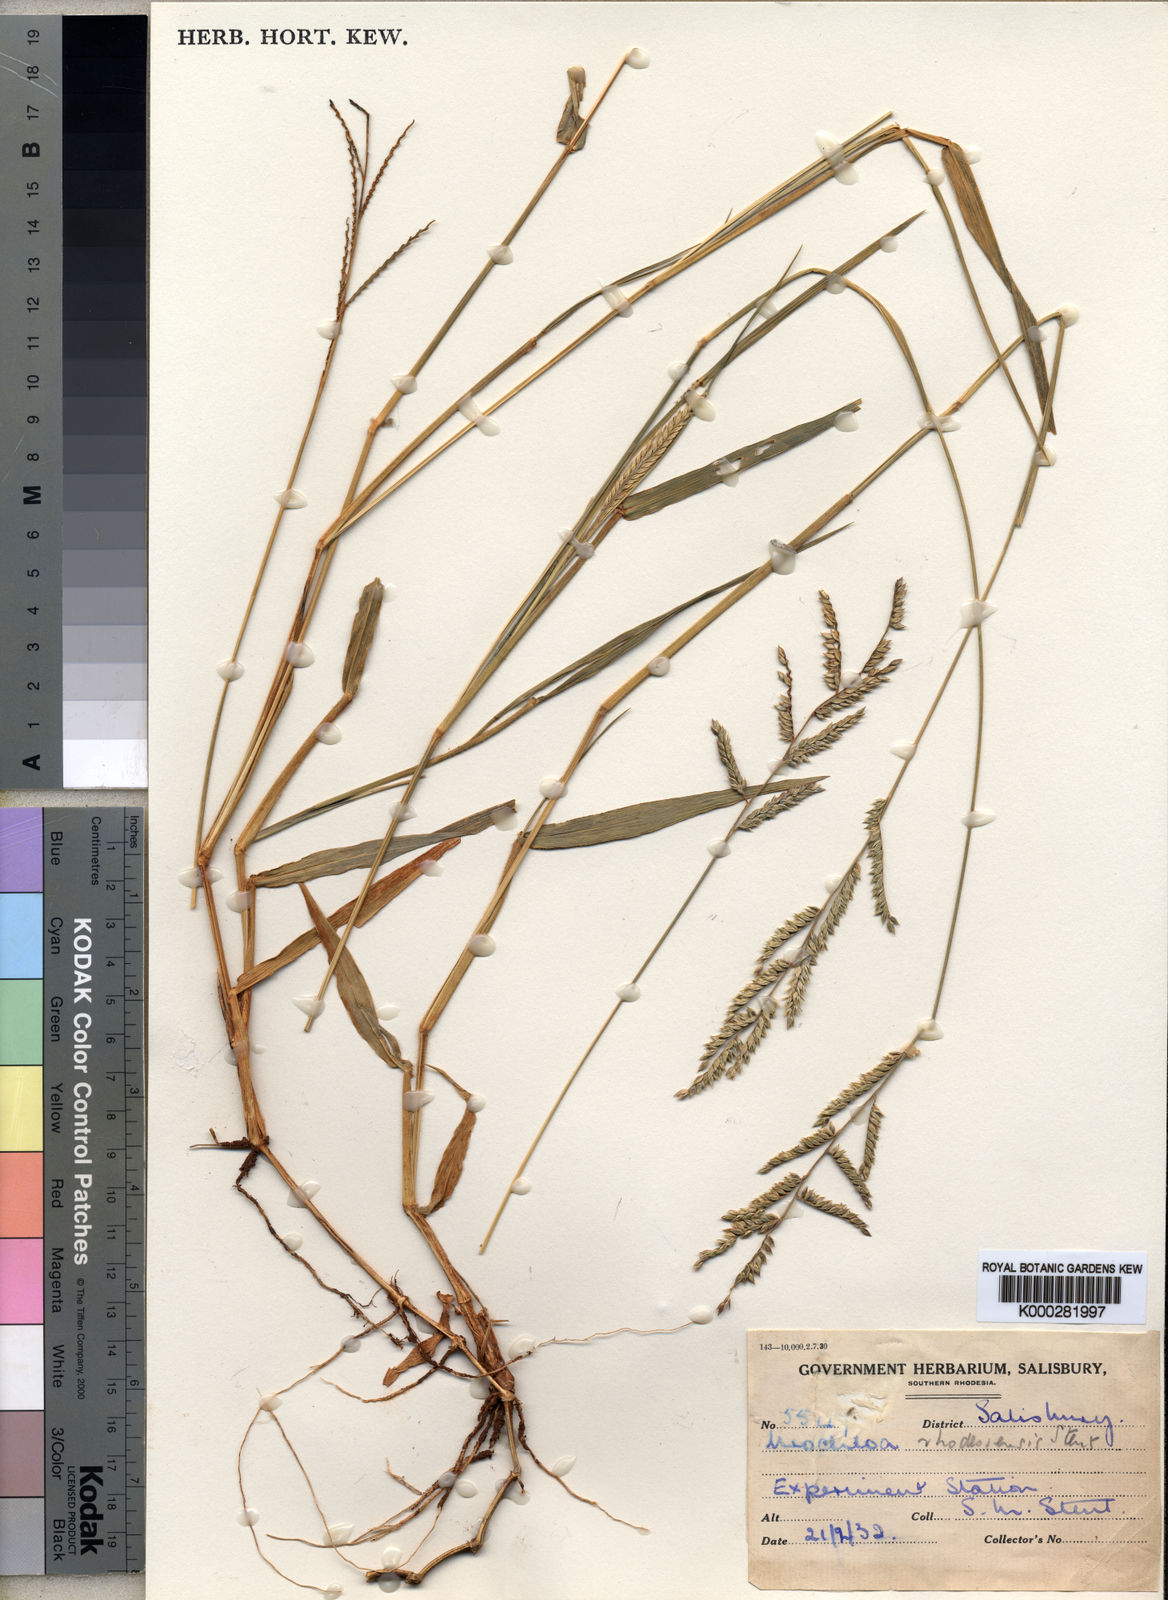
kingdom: Plantae
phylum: Tracheophyta
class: Liliopsida
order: Poales
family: Poaceae
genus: Urochloa
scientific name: Urochloa trichopus
